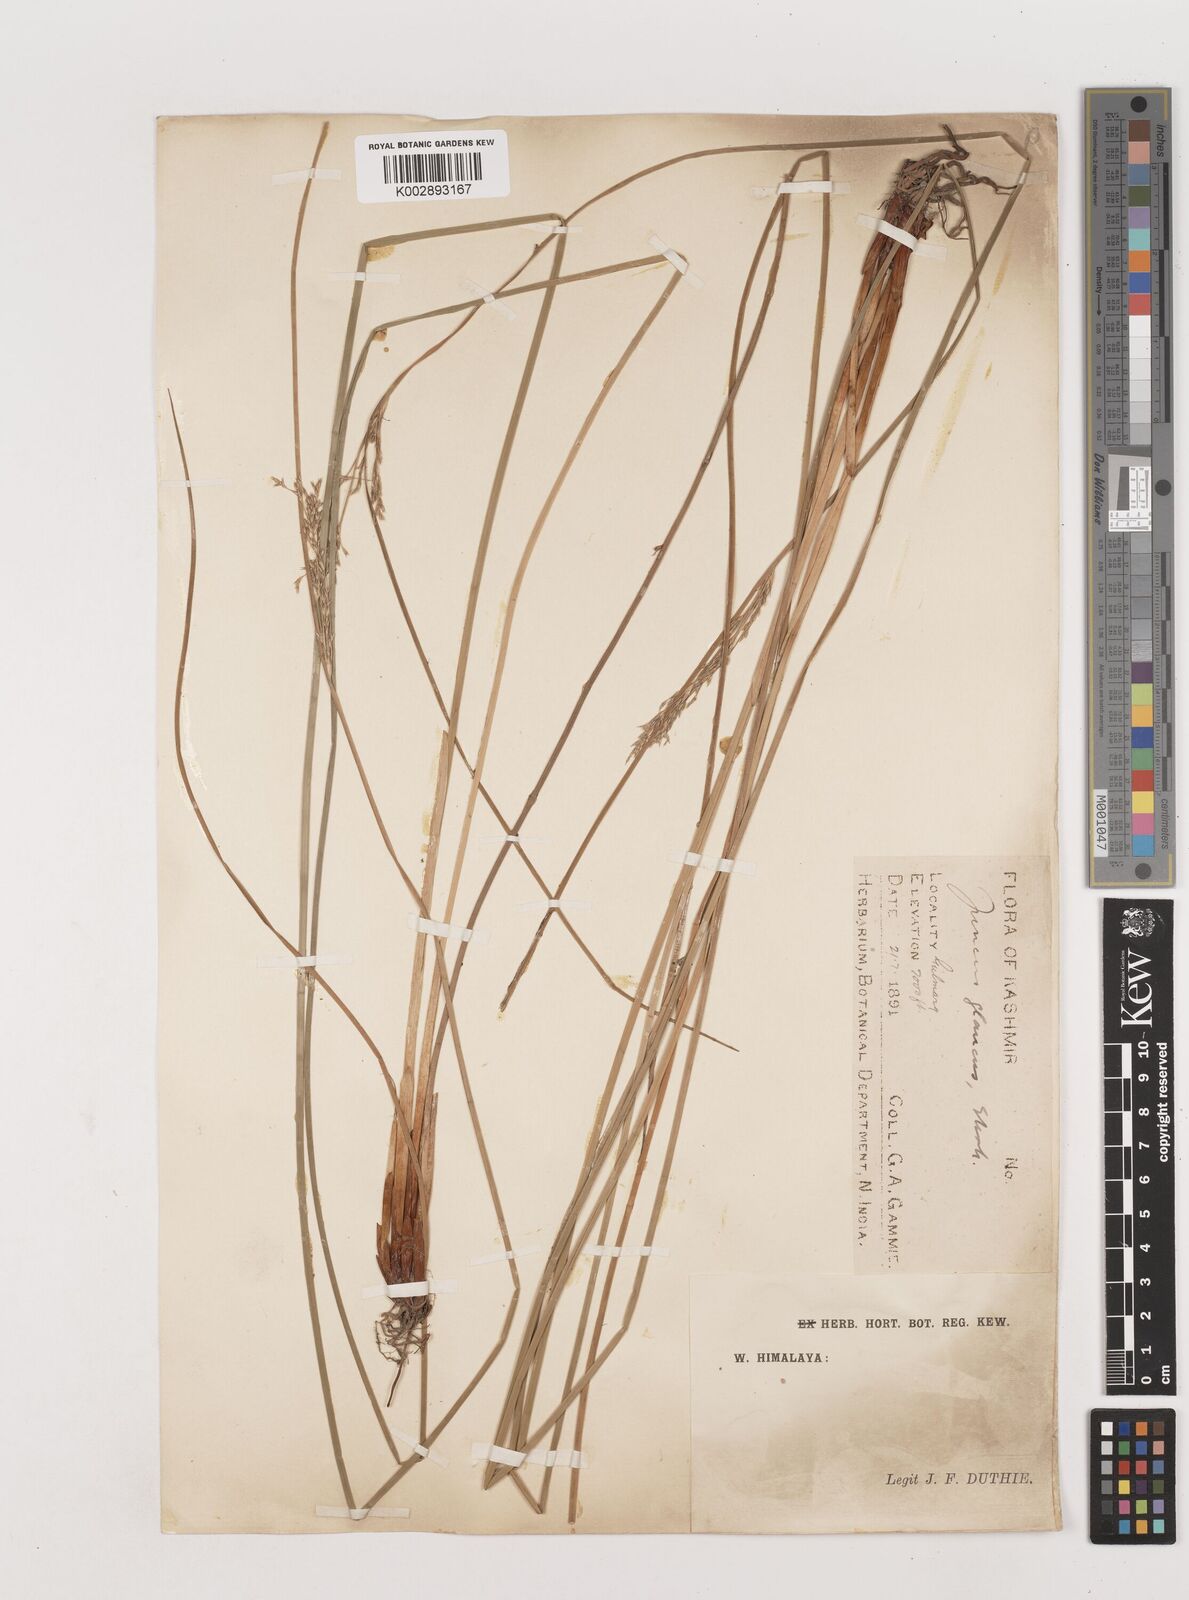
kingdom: Plantae
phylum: Tracheophyta
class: Liliopsida
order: Poales
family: Juncaceae
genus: Juncus
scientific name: Juncus inflexus
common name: Hard rush
